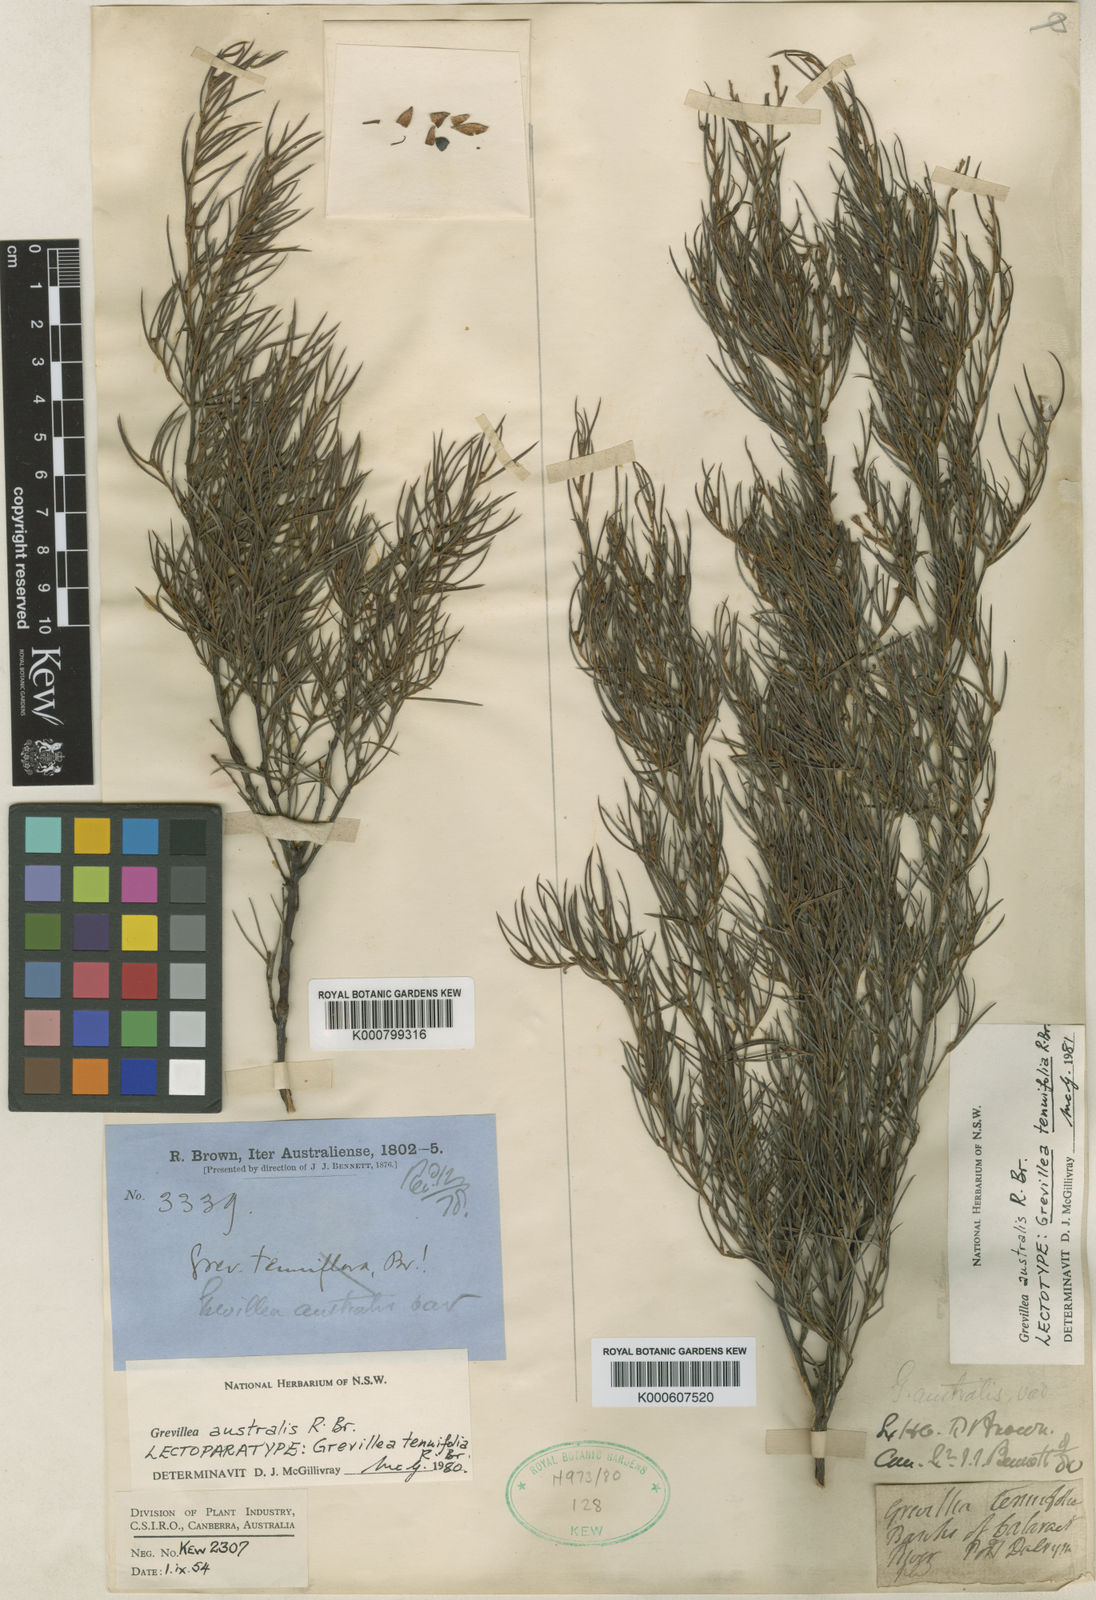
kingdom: Plantae
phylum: Tracheophyta
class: Magnoliopsida
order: Proteales
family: Proteaceae
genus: Grevillea
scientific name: Grevillea australis
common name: Alpine grevillea
